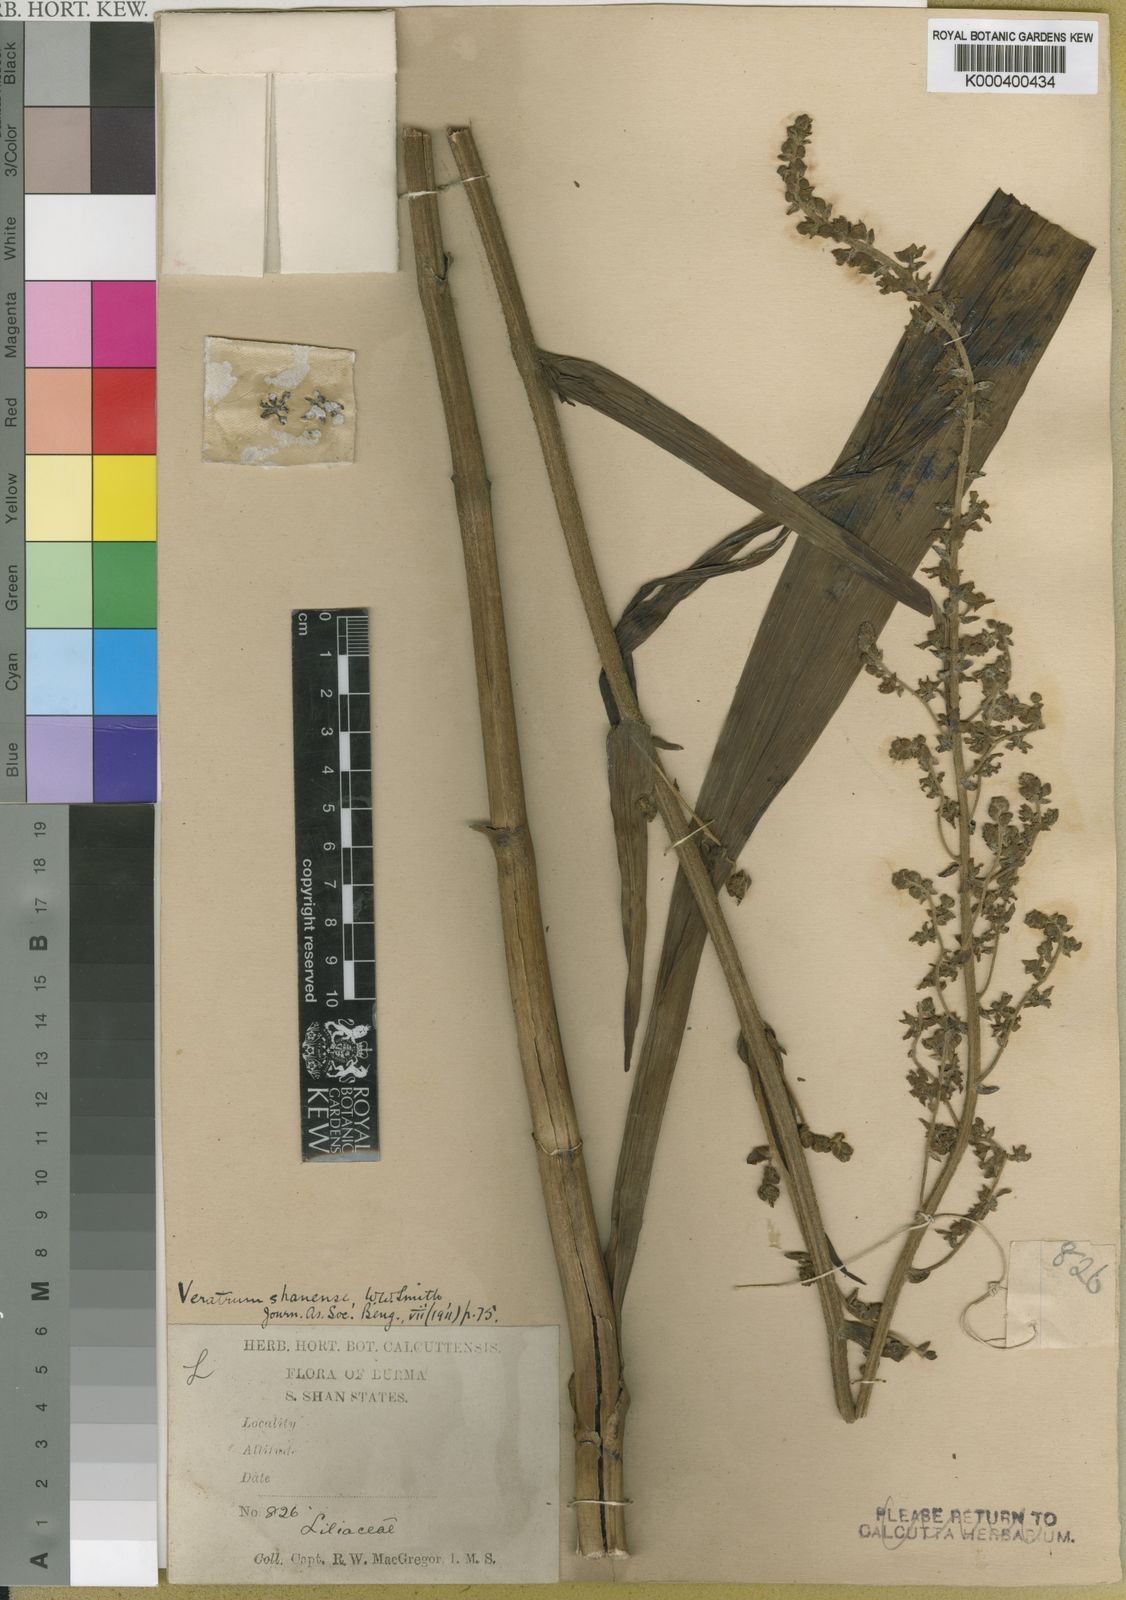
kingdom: Plantae
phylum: Tracheophyta
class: Liliopsida
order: Liliales
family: Melanthiaceae
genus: Veratrum
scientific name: Veratrum shanense
